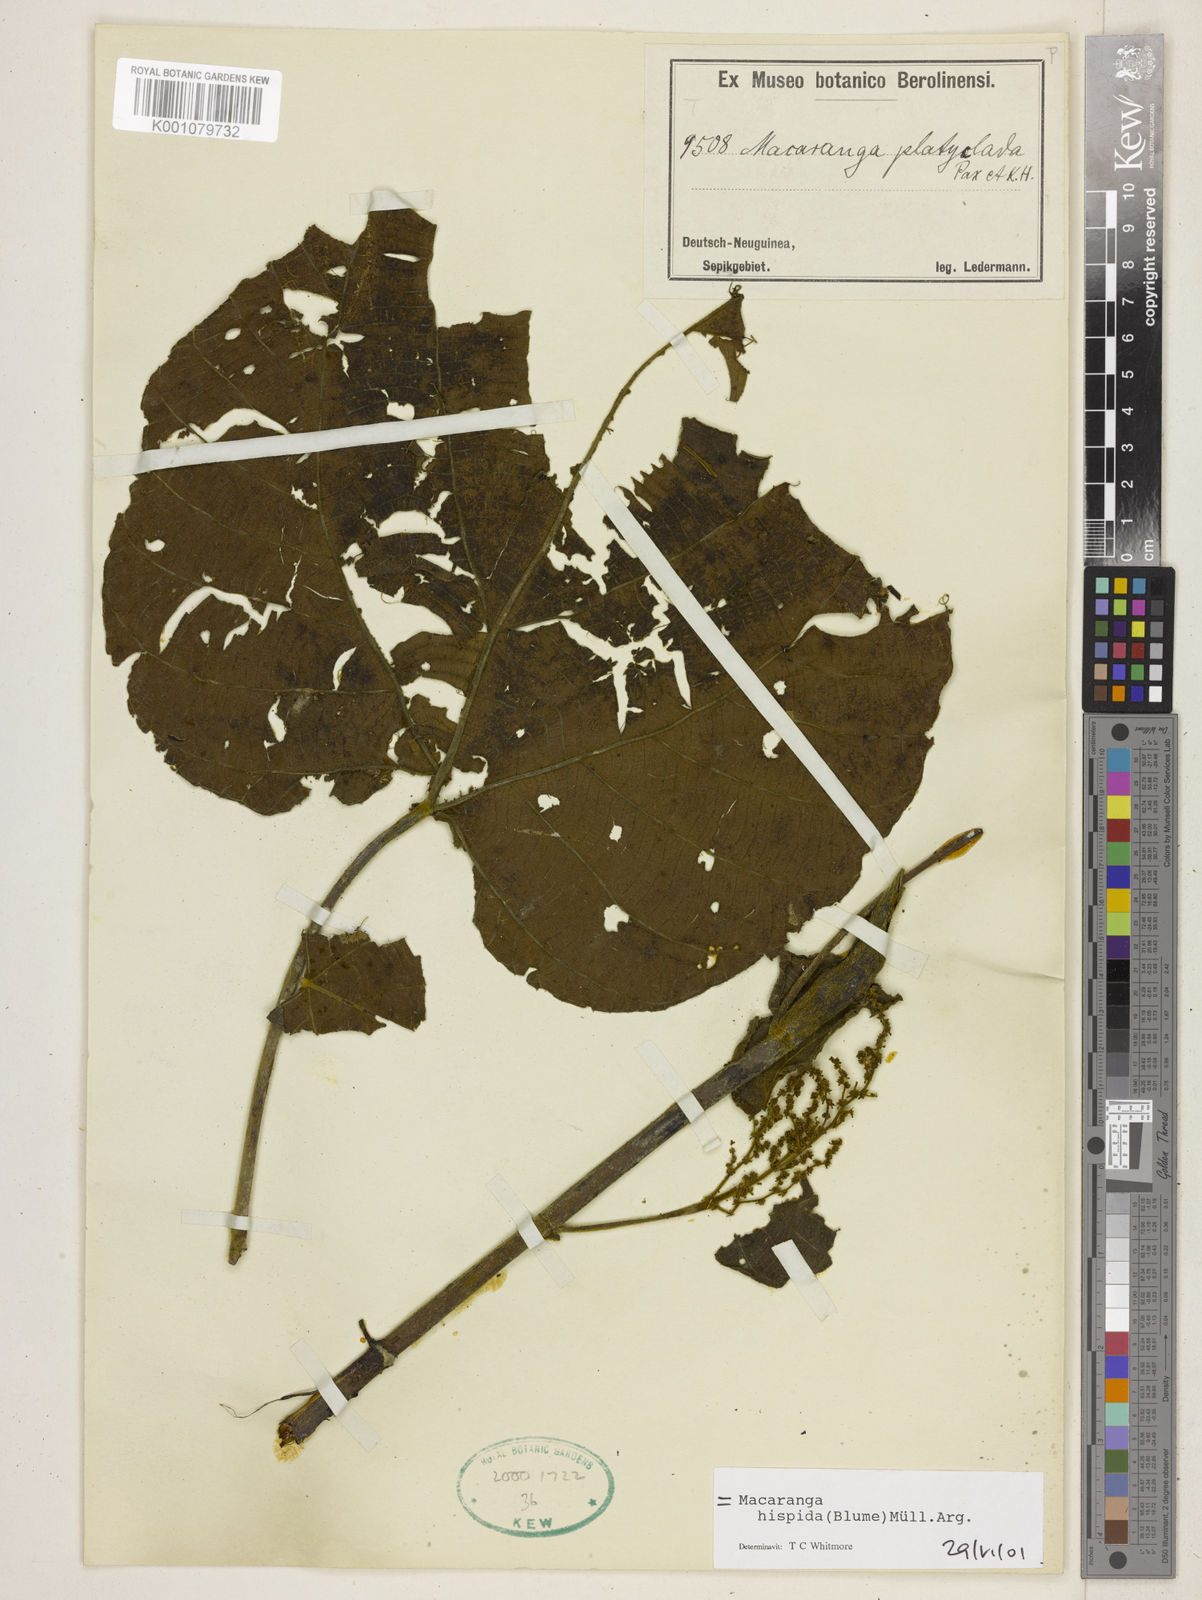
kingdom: Plantae
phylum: Tracheophyta
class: Magnoliopsida
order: Malpighiales
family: Euphorbiaceae
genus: Macaranga
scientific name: Macaranga platyclada
